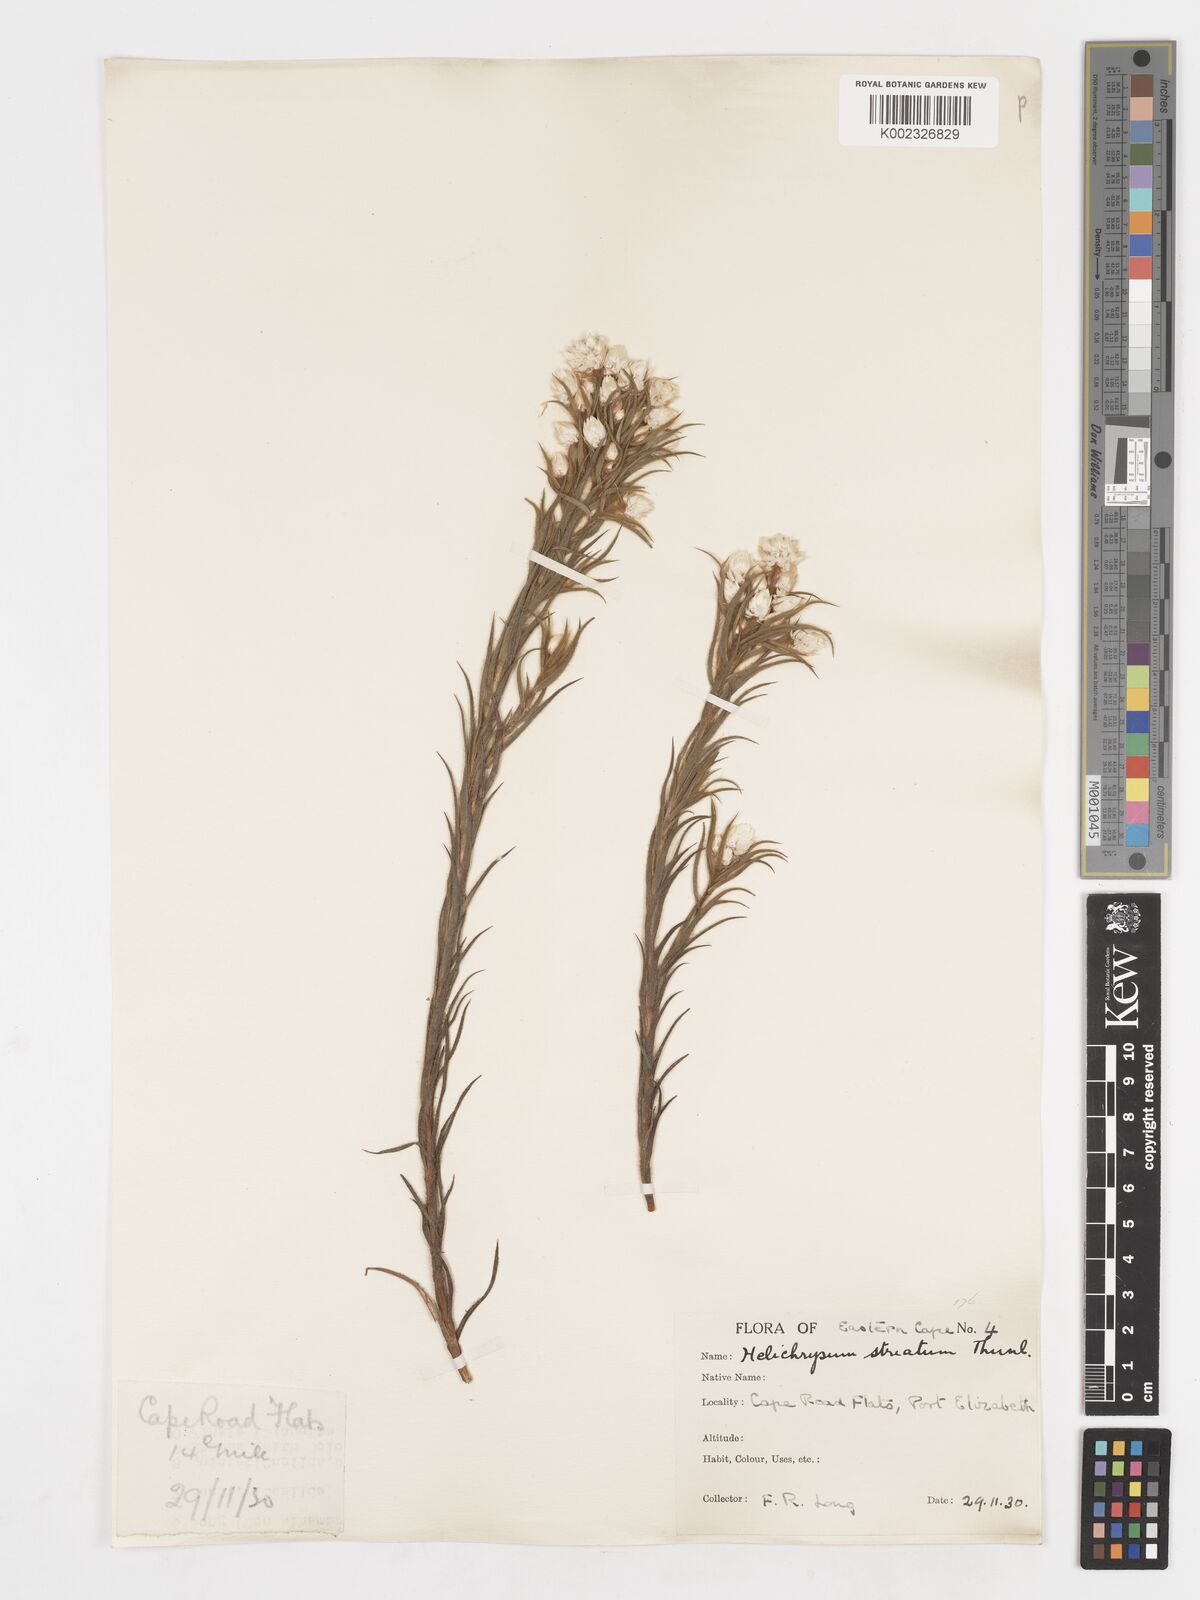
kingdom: Plantae
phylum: Tracheophyta
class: Magnoliopsida
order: Asterales
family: Asteraceae
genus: Achyranthemum
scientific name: Achyranthemum striatum
